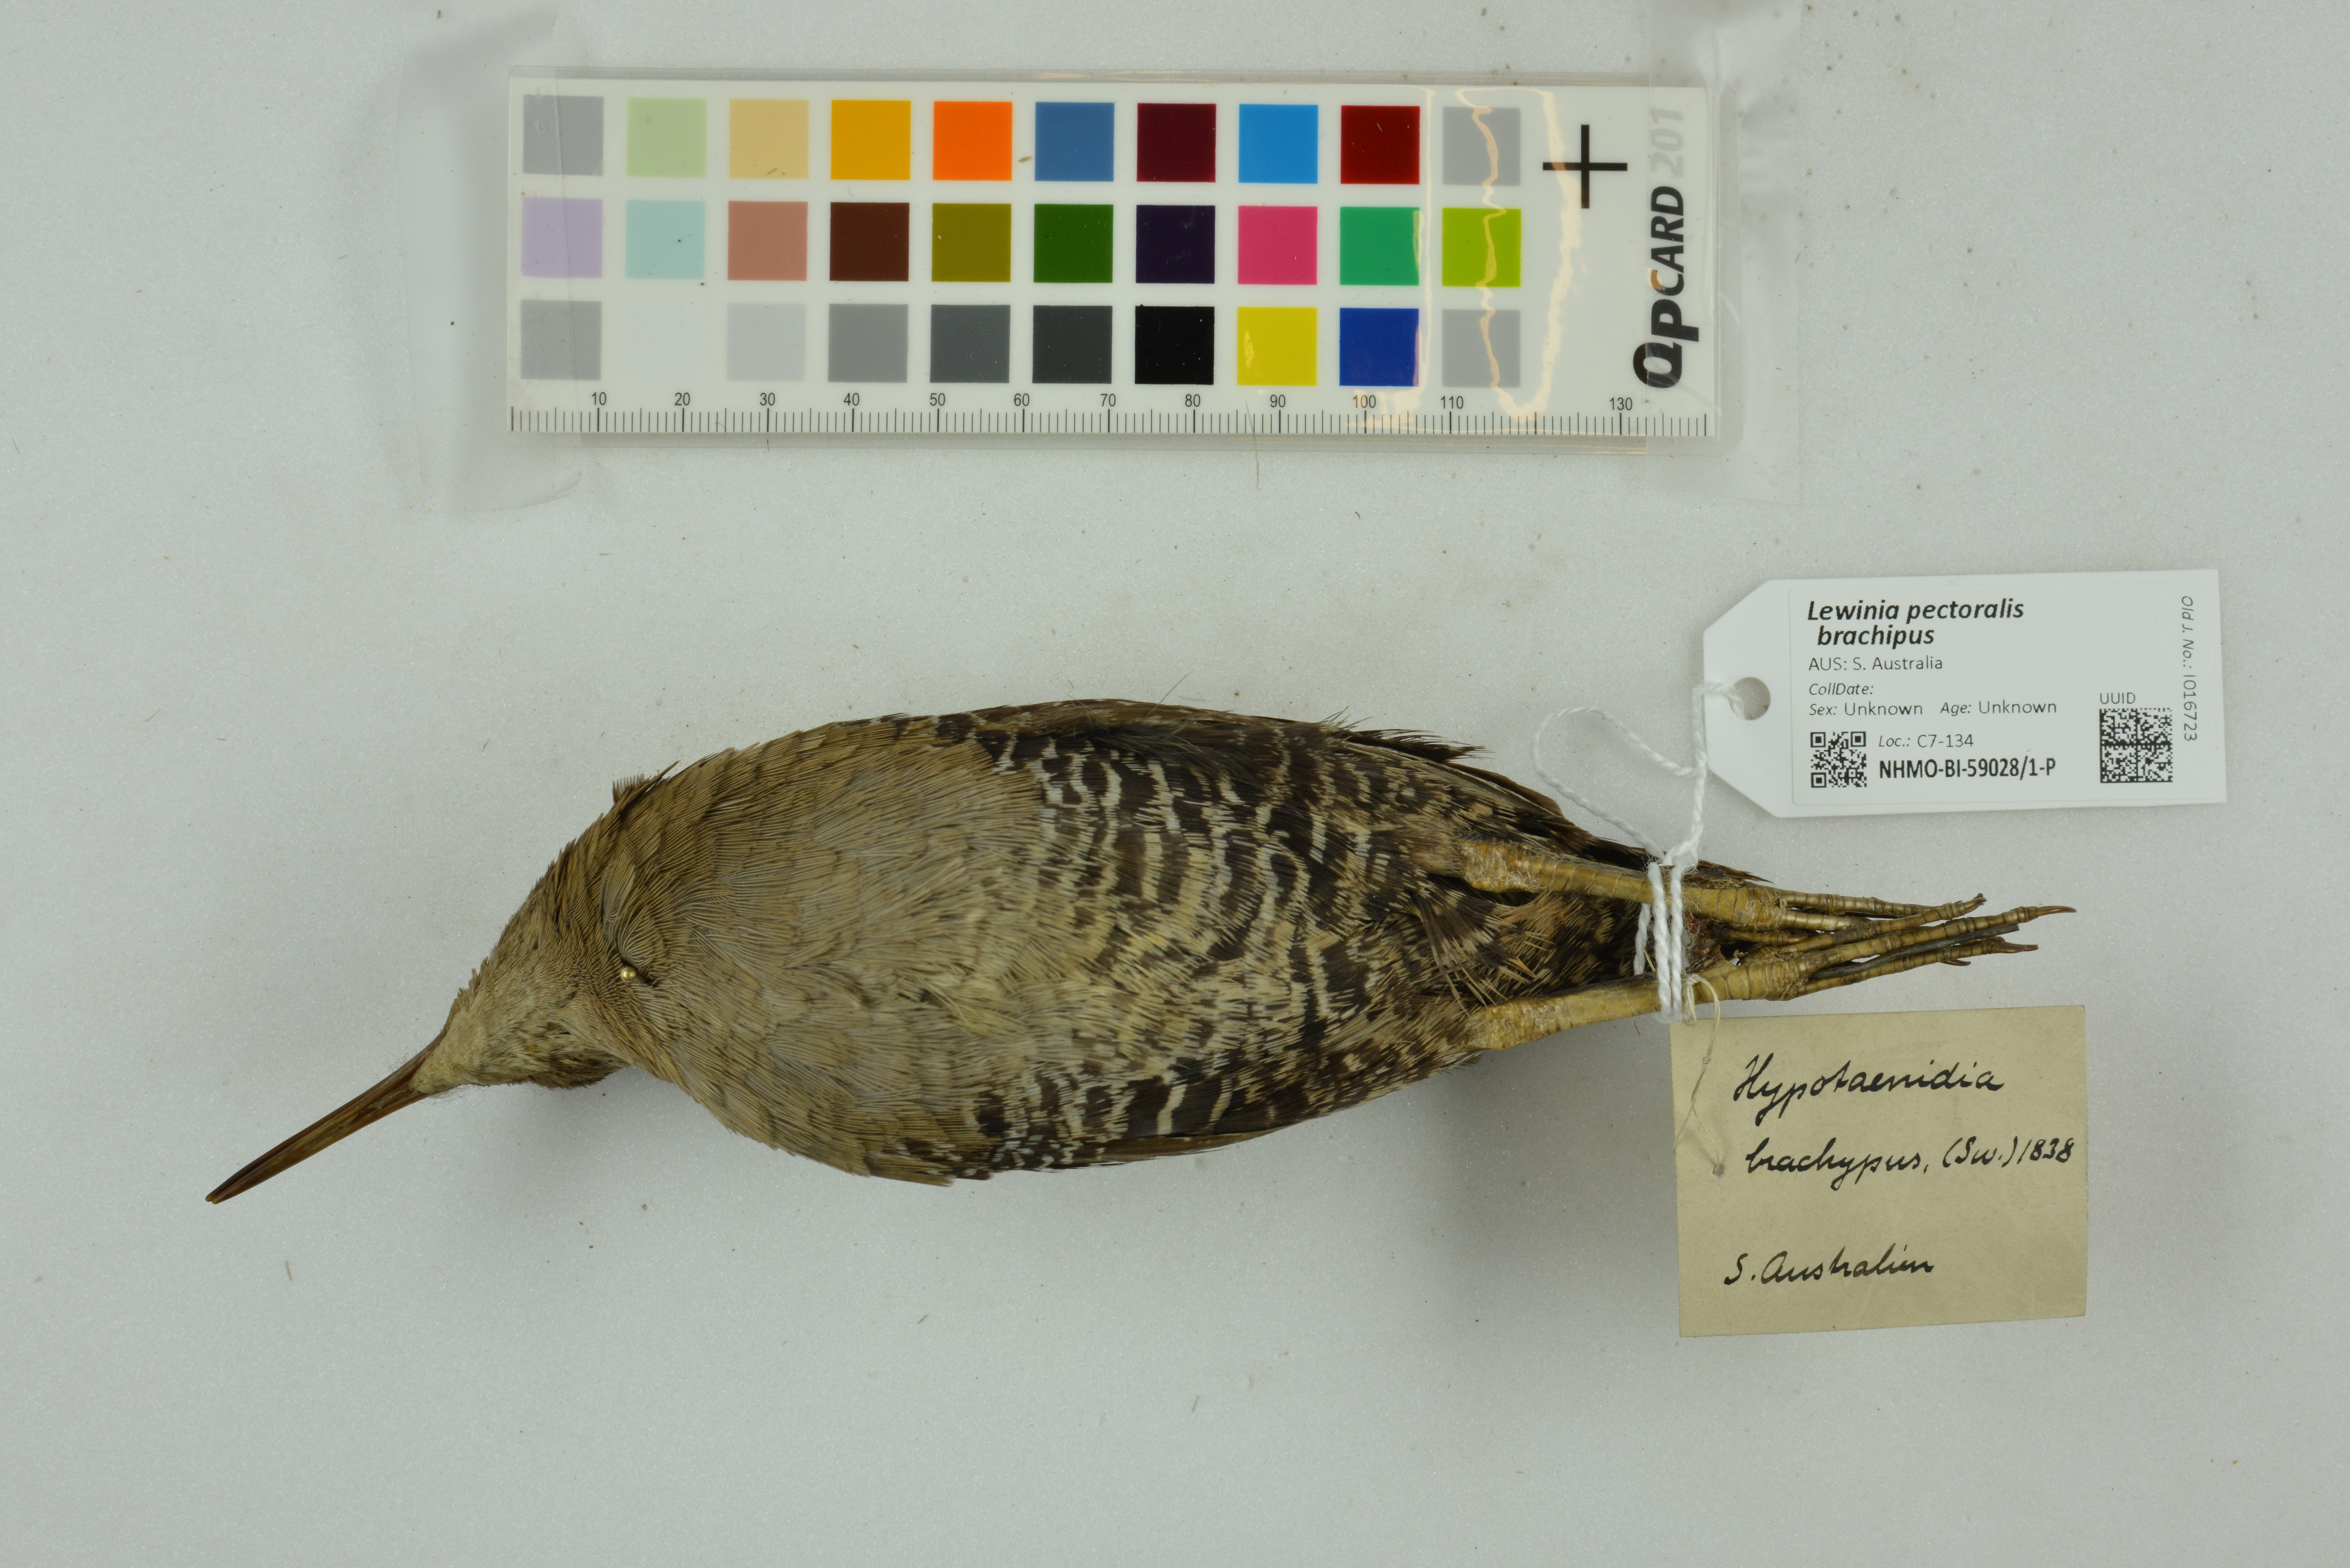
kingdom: Animalia
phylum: Chordata
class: Aves
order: Gruiformes
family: Rallidae
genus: Lewinia
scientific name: Lewinia pectoralis
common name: Lewin's rail
